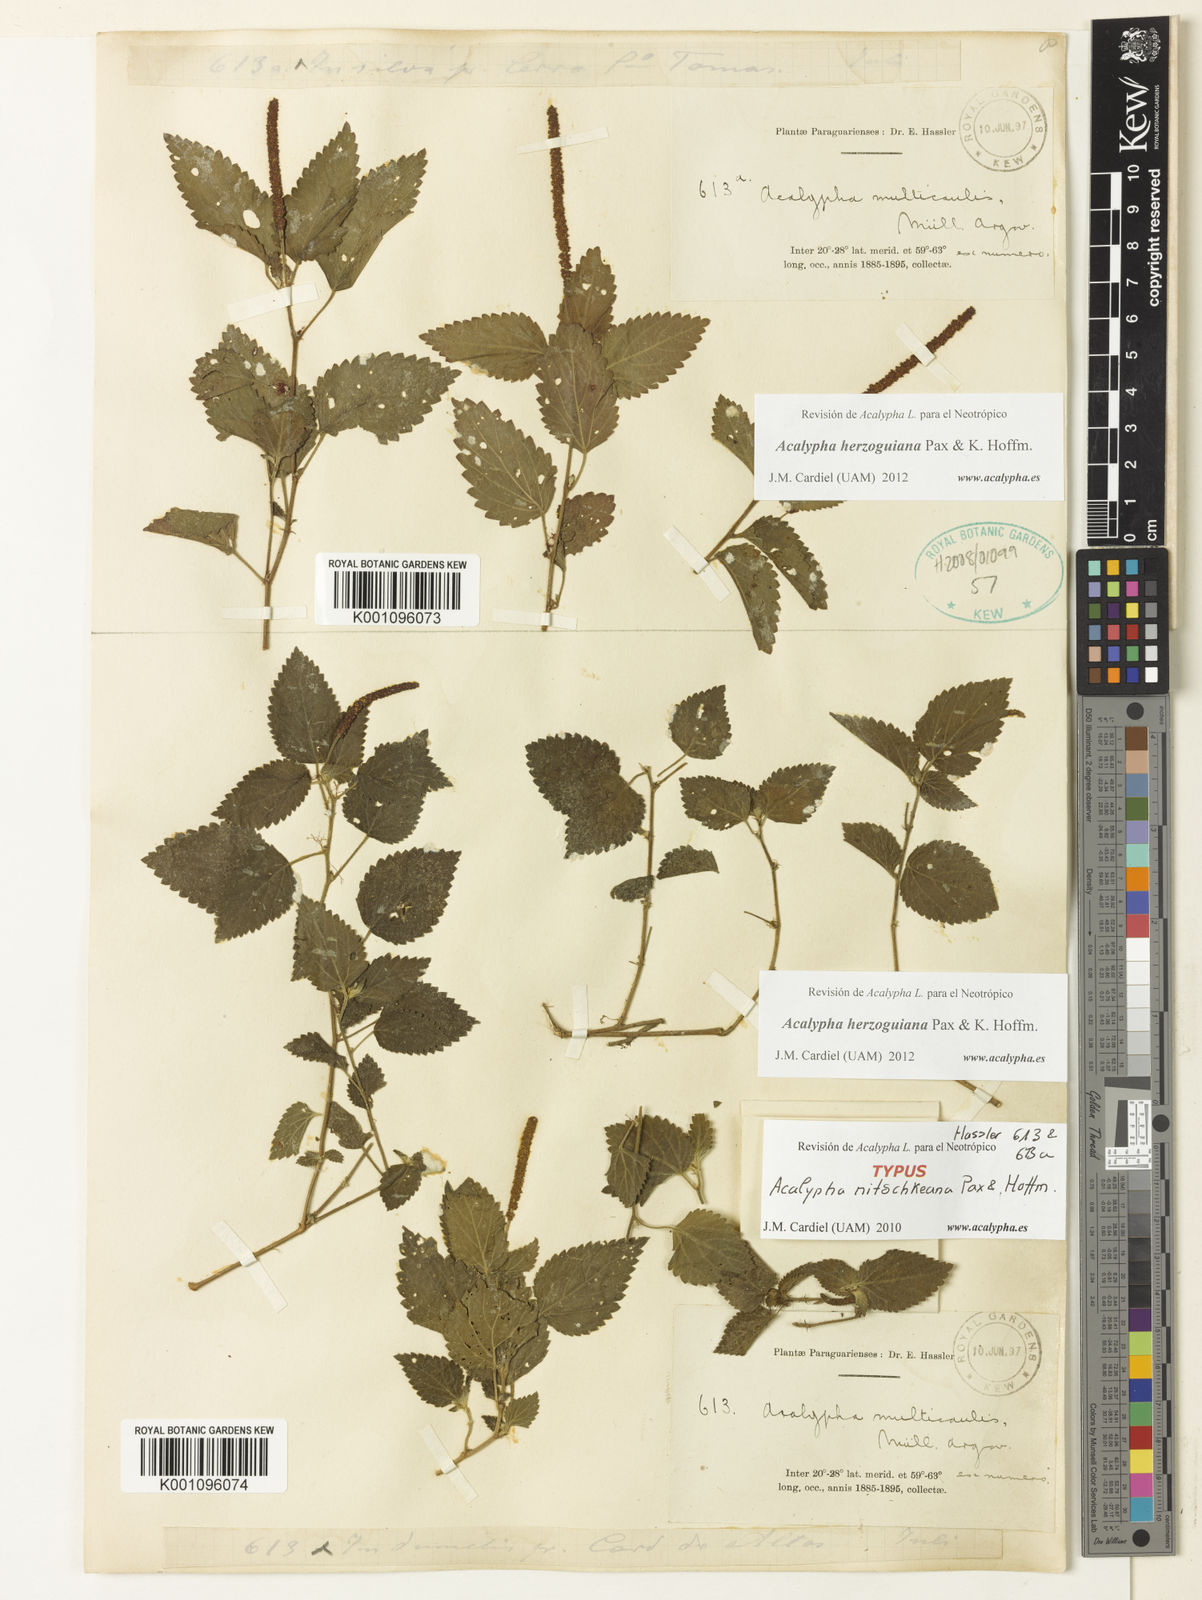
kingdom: Plantae
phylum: Tracheophyta
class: Magnoliopsida
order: Malpighiales
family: Euphorbiaceae
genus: Acalypha
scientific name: Acalypha herzogiana
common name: Dwarf-cattail
